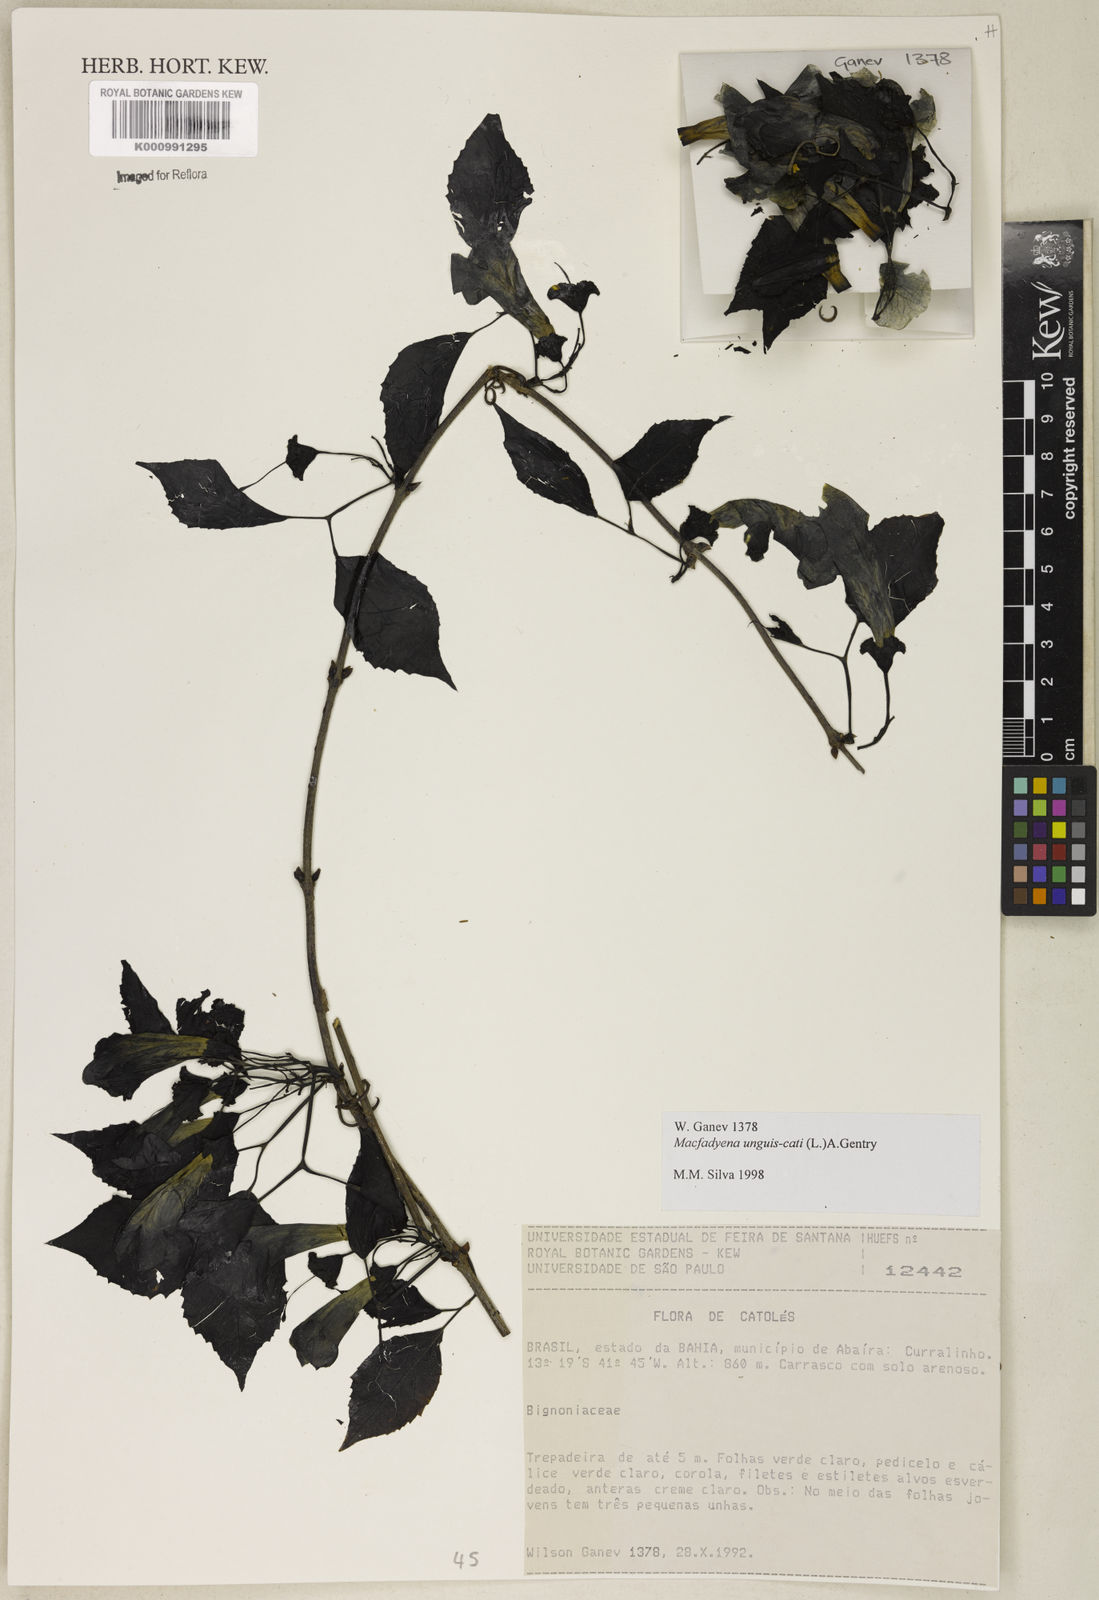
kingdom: Plantae
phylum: Tracheophyta
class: Magnoliopsida
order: Lamiales
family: Bignoniaceae
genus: Dolichandra
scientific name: Dolichandra unguis-cati
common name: Catclaw vine
